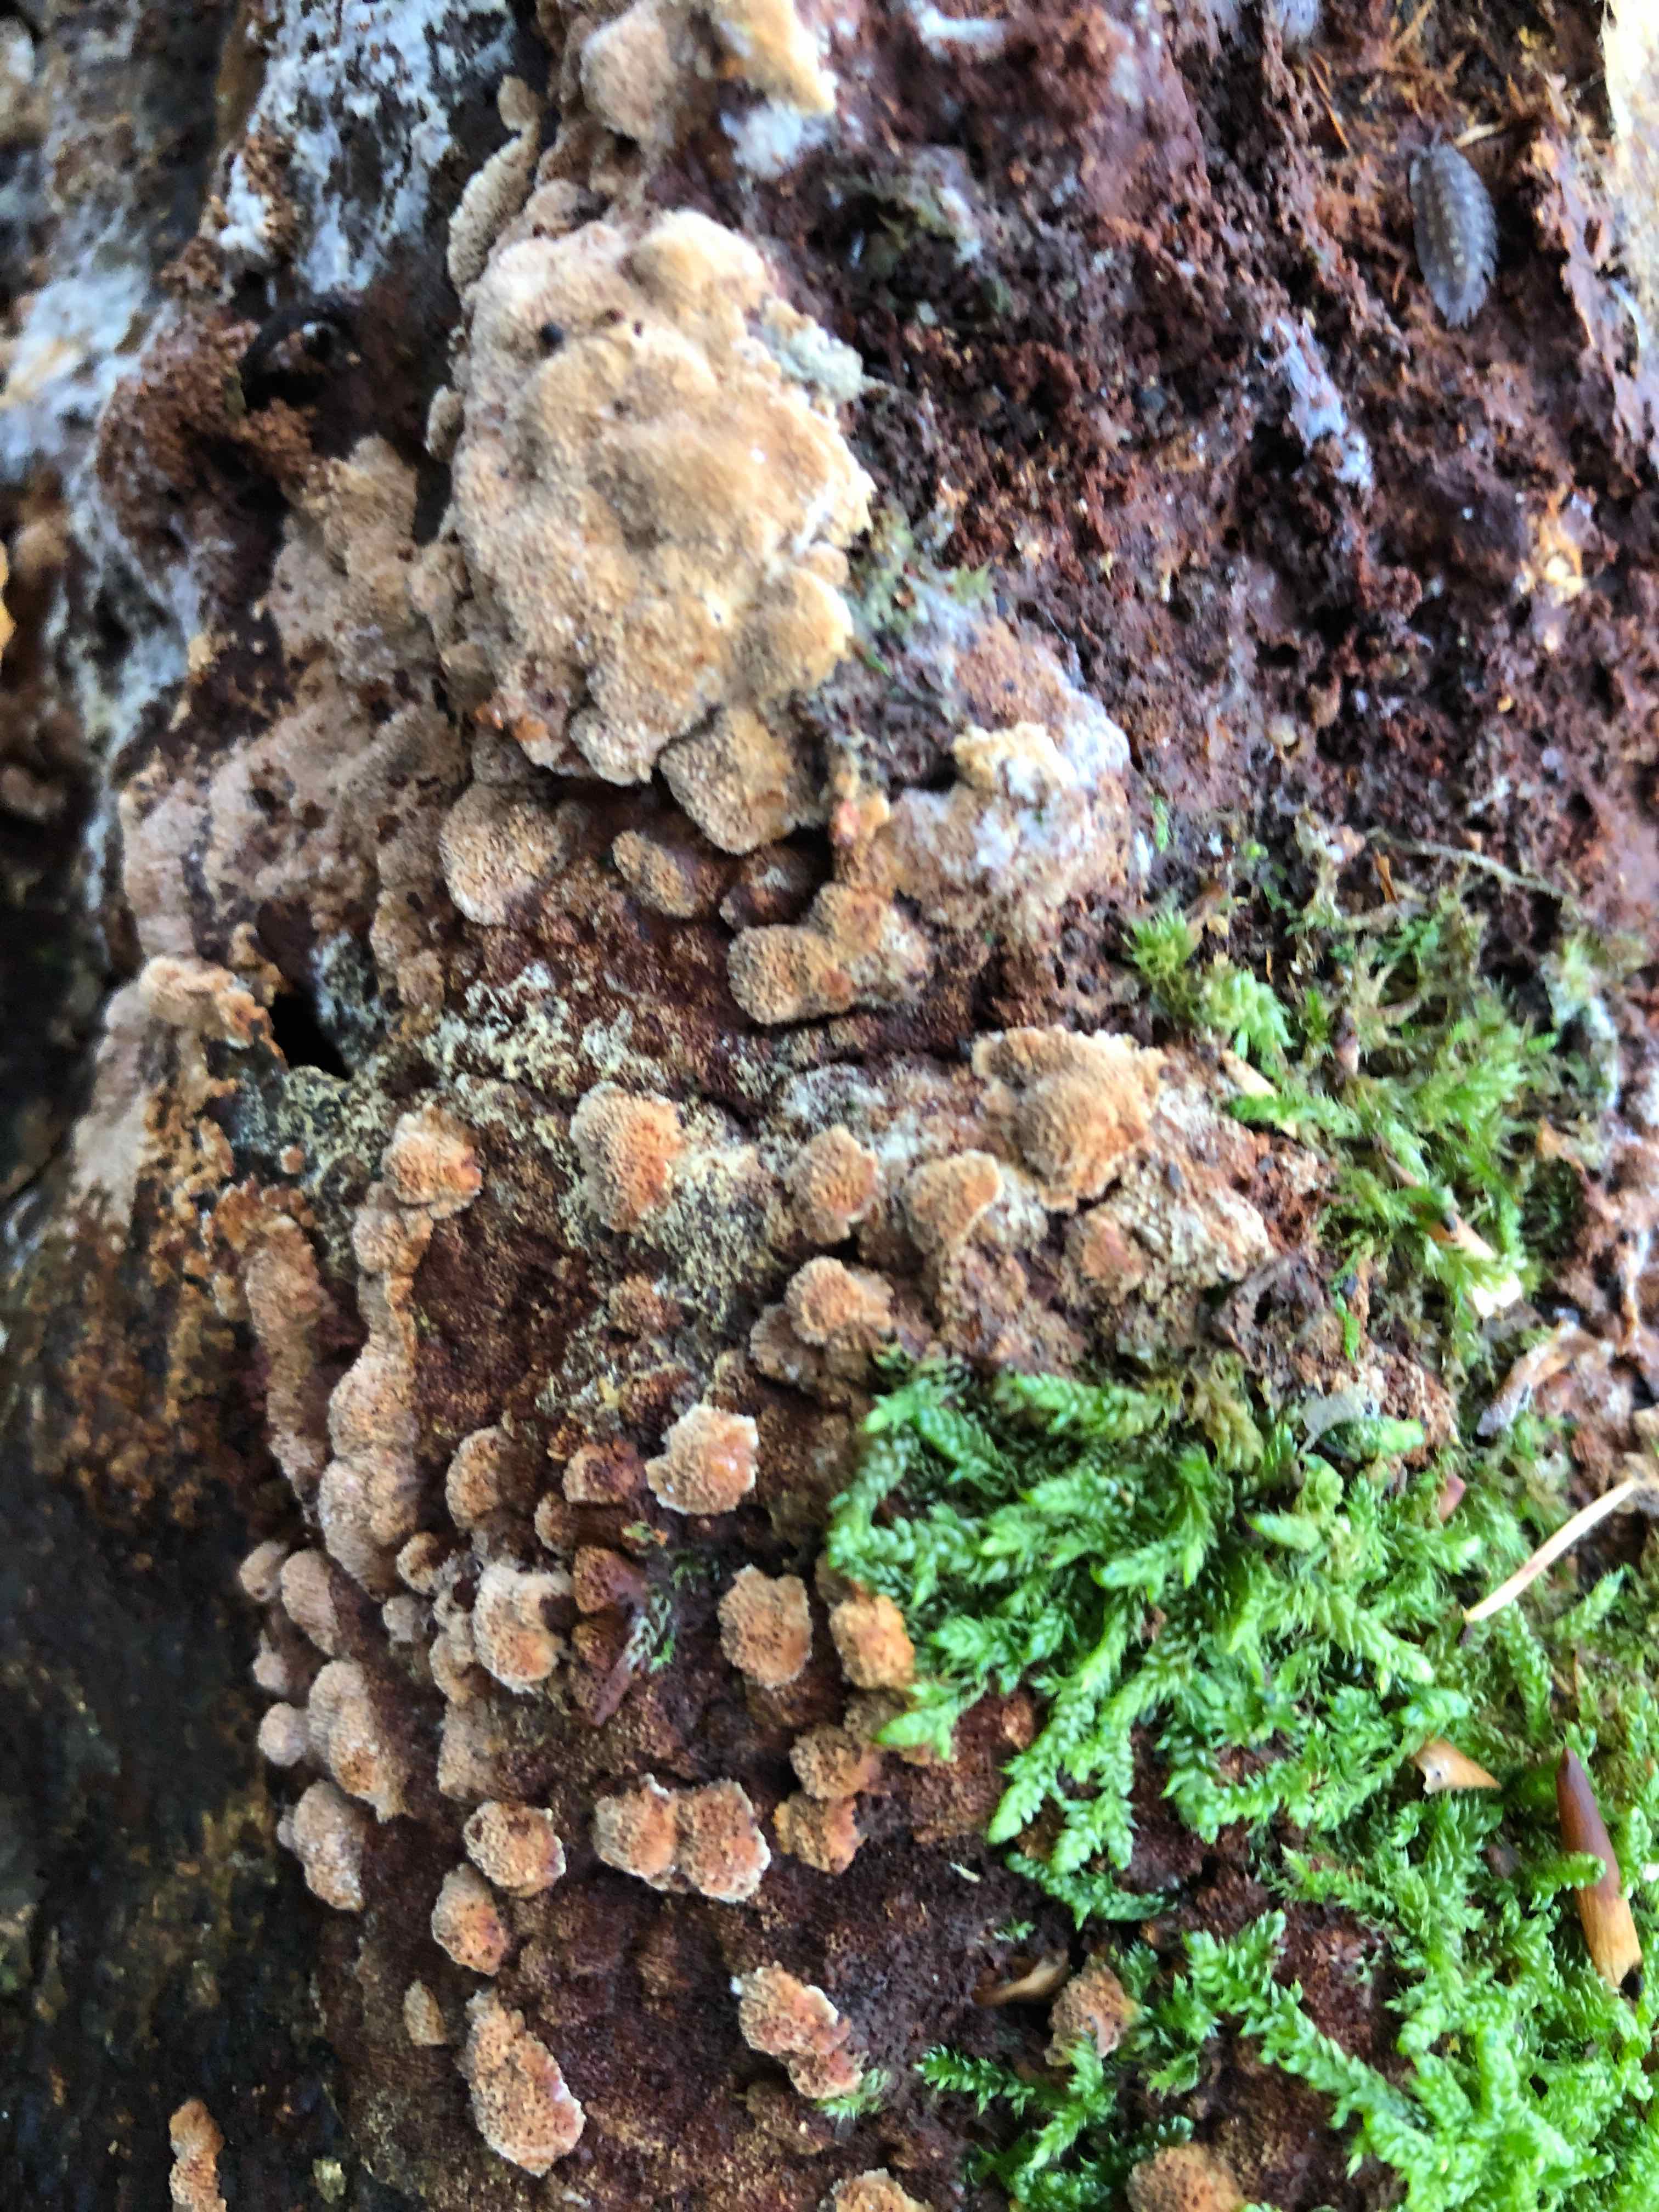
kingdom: Fungi
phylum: Basidiomycota
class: Agaricomycetes
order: Hymenochaetales
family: Hymenochaetaceae
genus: Fuscoporia
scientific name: Fuscoporia ferrea
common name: skorpe-ildporesvamp
